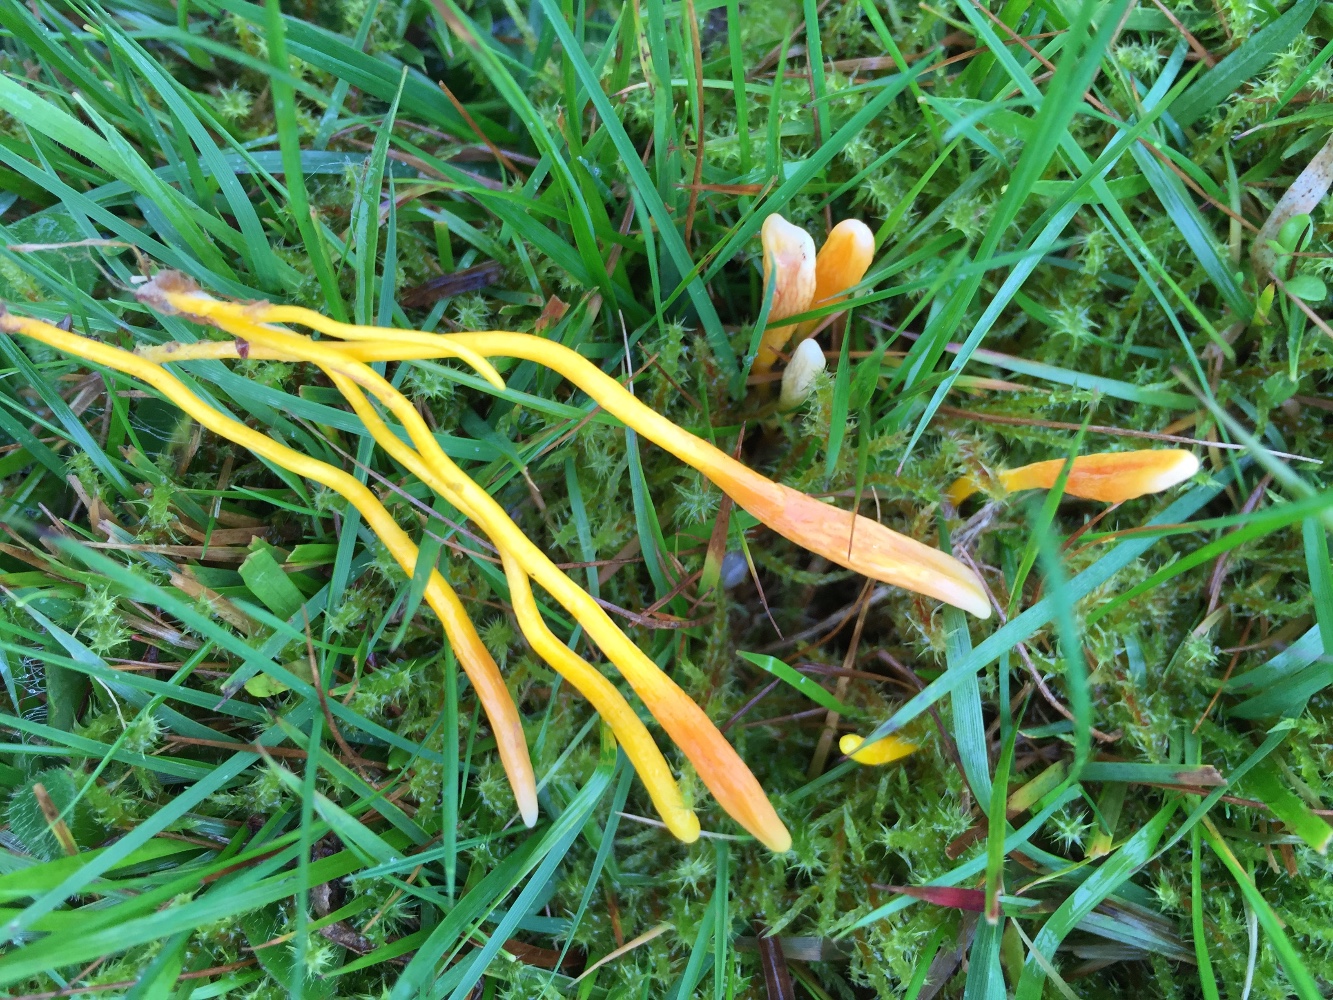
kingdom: Fungi
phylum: Basidiomycota
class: Agaricomycetes
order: Agaricales
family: Clavariaceae
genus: Clavulinopsis
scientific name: Clavulinopsis helvola
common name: orangegul køllesvamp
